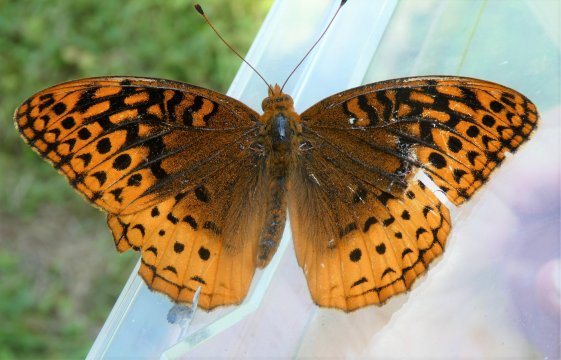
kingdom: Animalia
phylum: Arthropoda
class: Insecta
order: Lepidoptera
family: Nymphalidae
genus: Speyeria
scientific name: Speyeria cybele
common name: Great Spangled Fritillary
